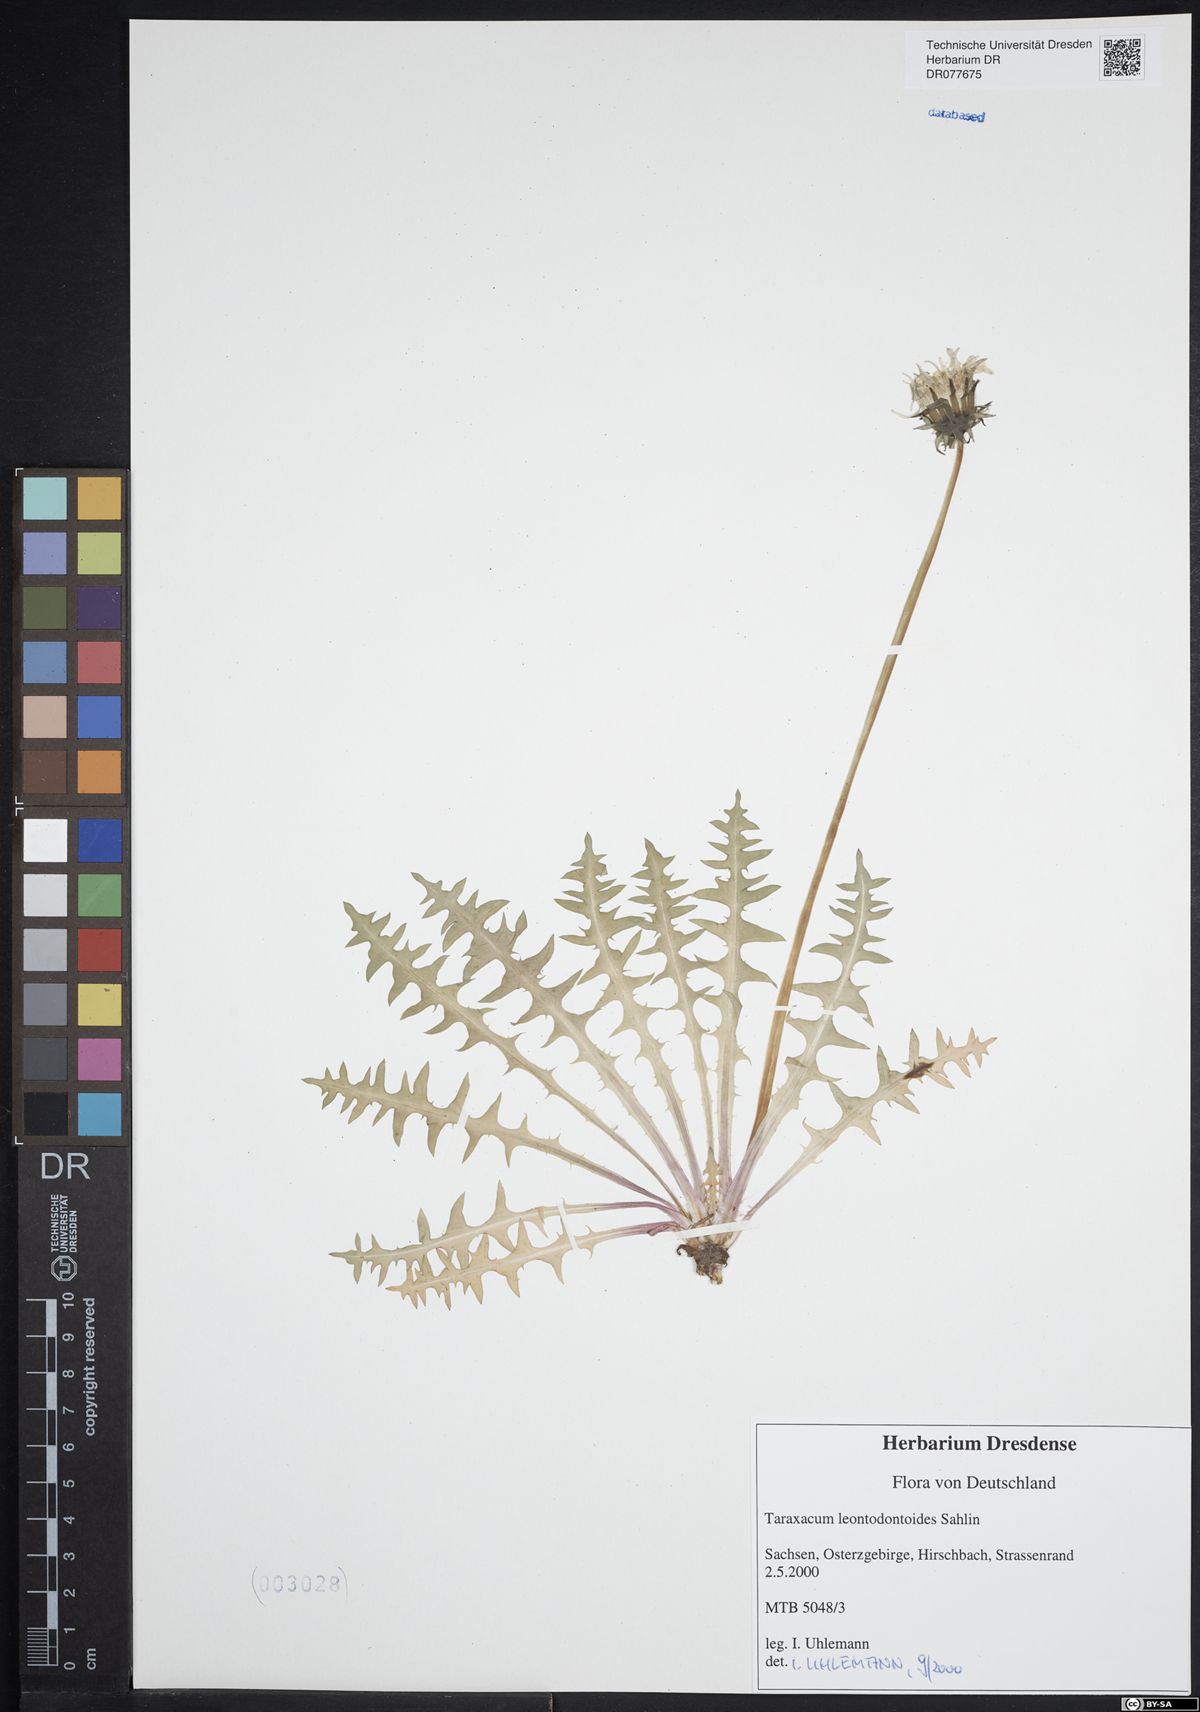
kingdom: Plantae
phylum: Tracheophyta
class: Magnoliopsida
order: Asterales
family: Asteraceae
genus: Taraxacum
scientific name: Taraxacum gentile
